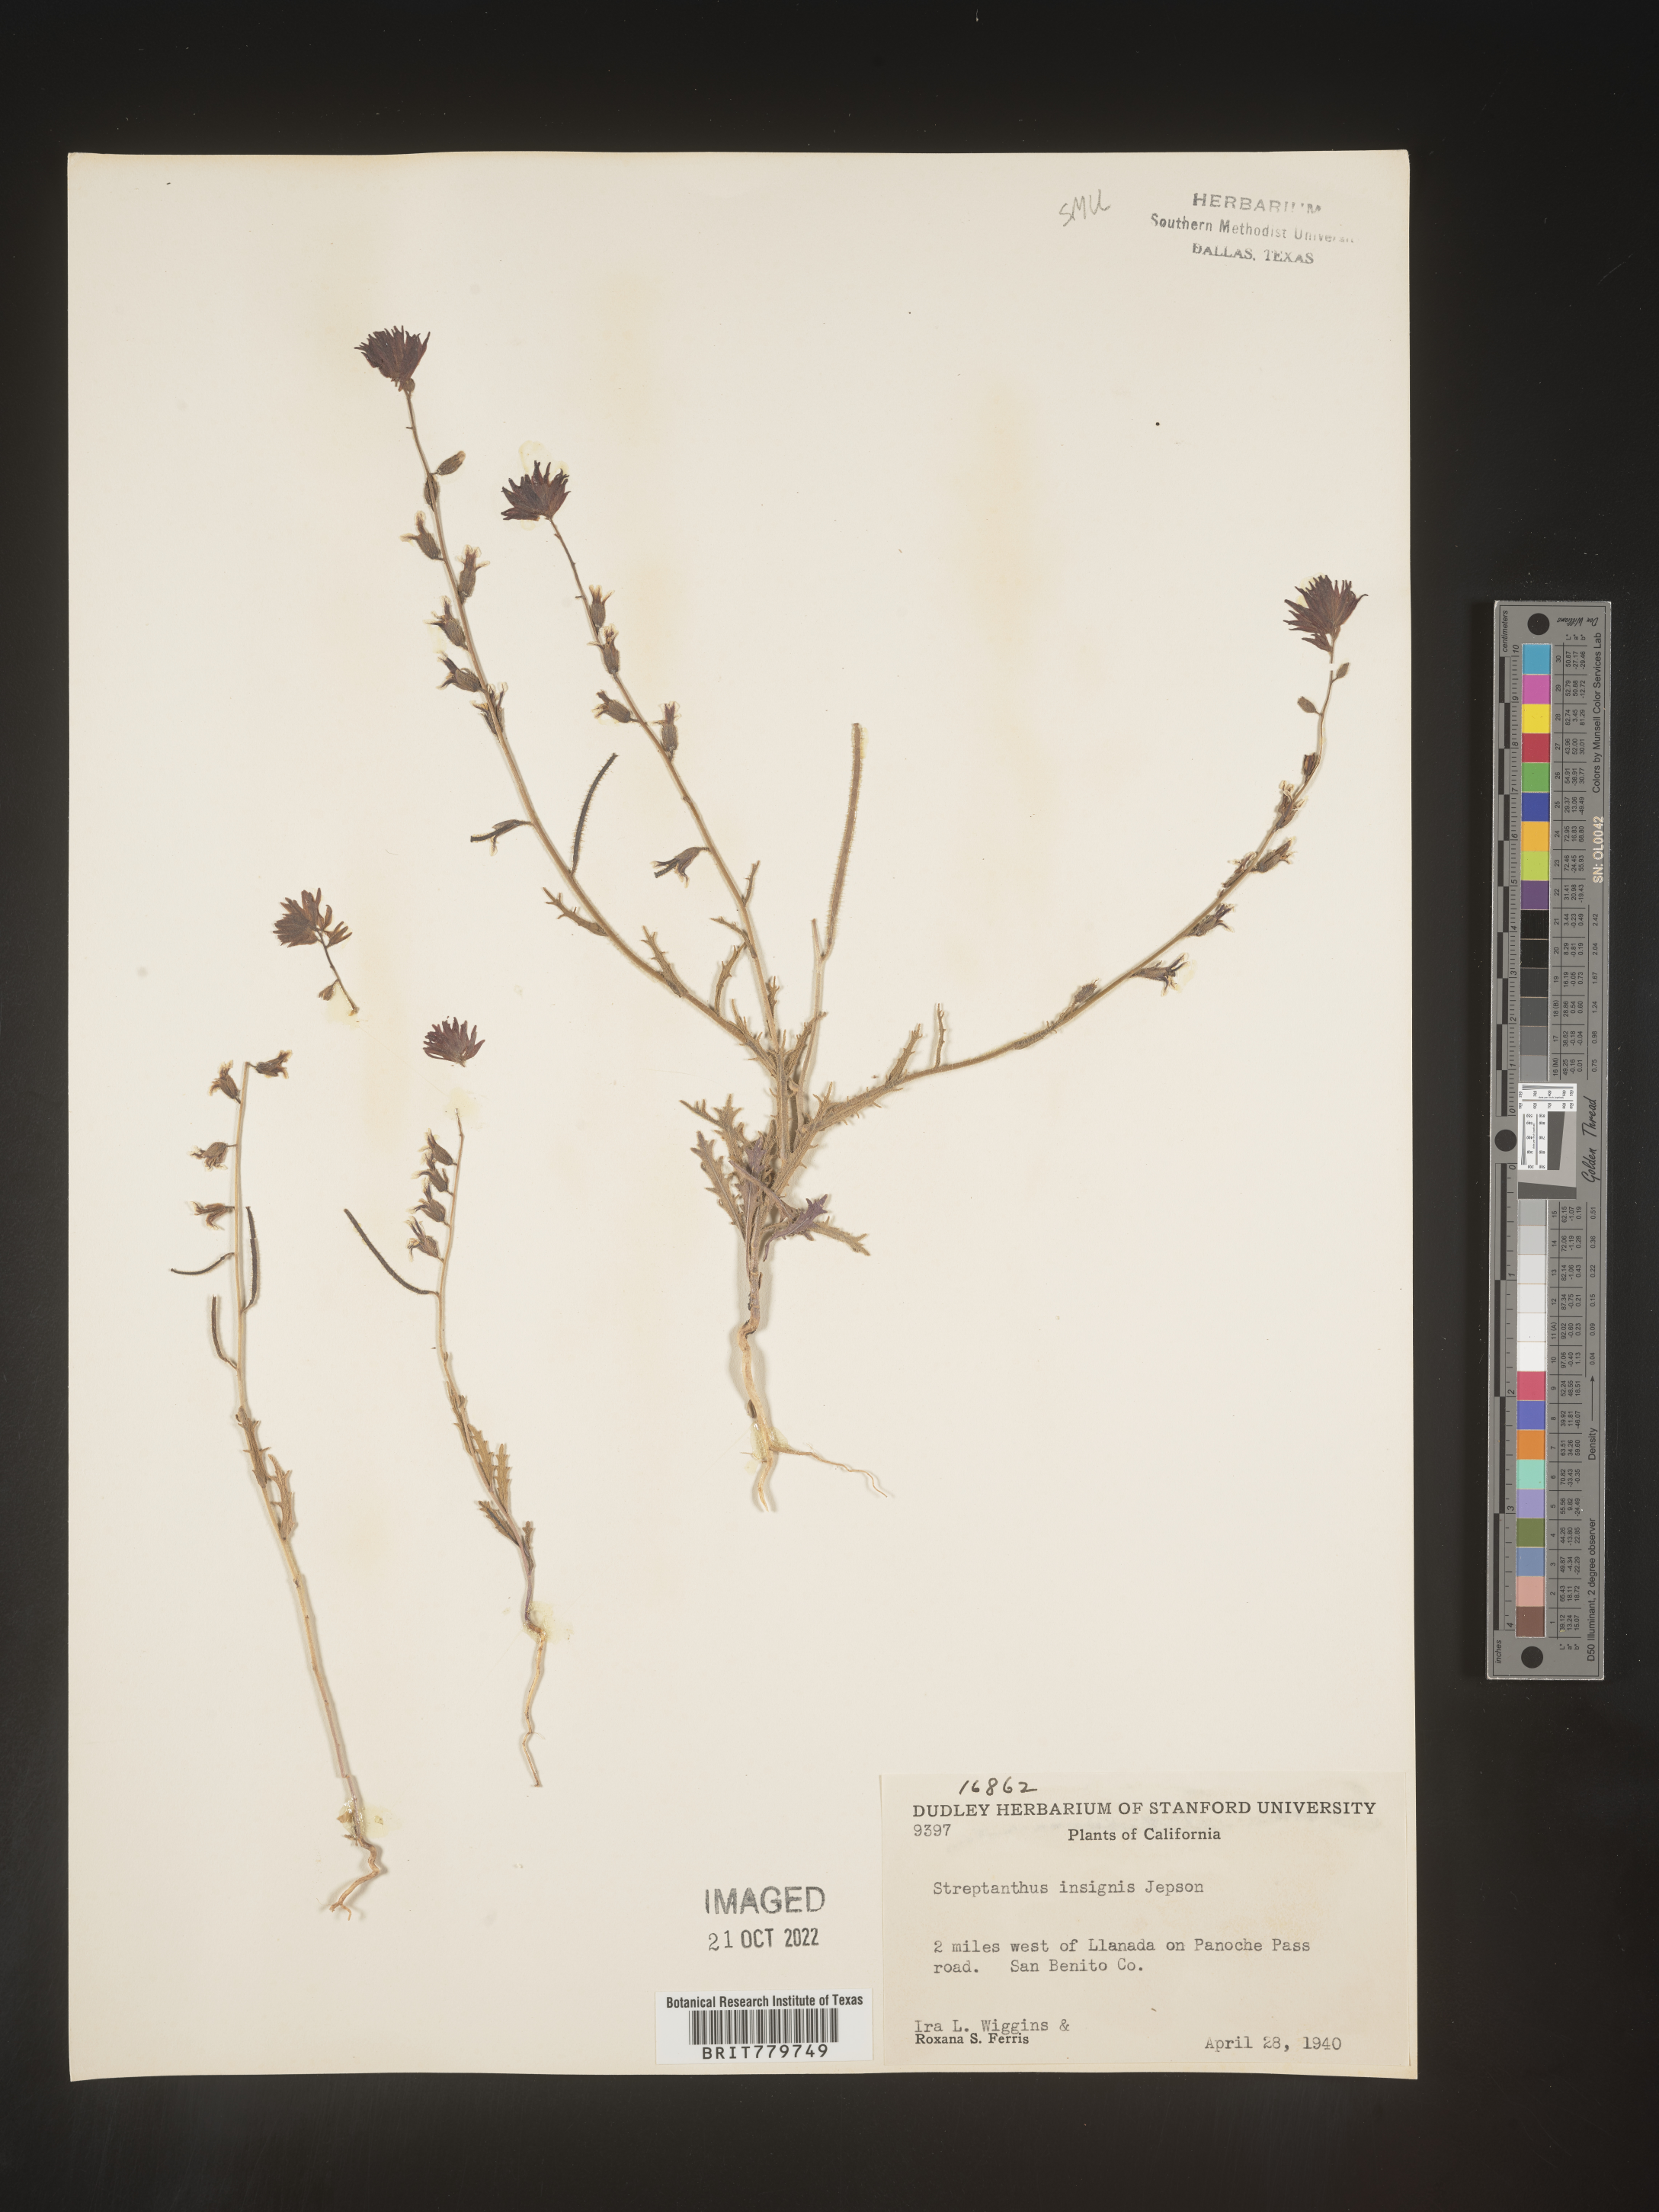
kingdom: Plantae
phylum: Tracheophyta
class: Magnoliopsida
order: Brassicales
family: Brassicaceae
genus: Streptanthus
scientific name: Streptanthus
